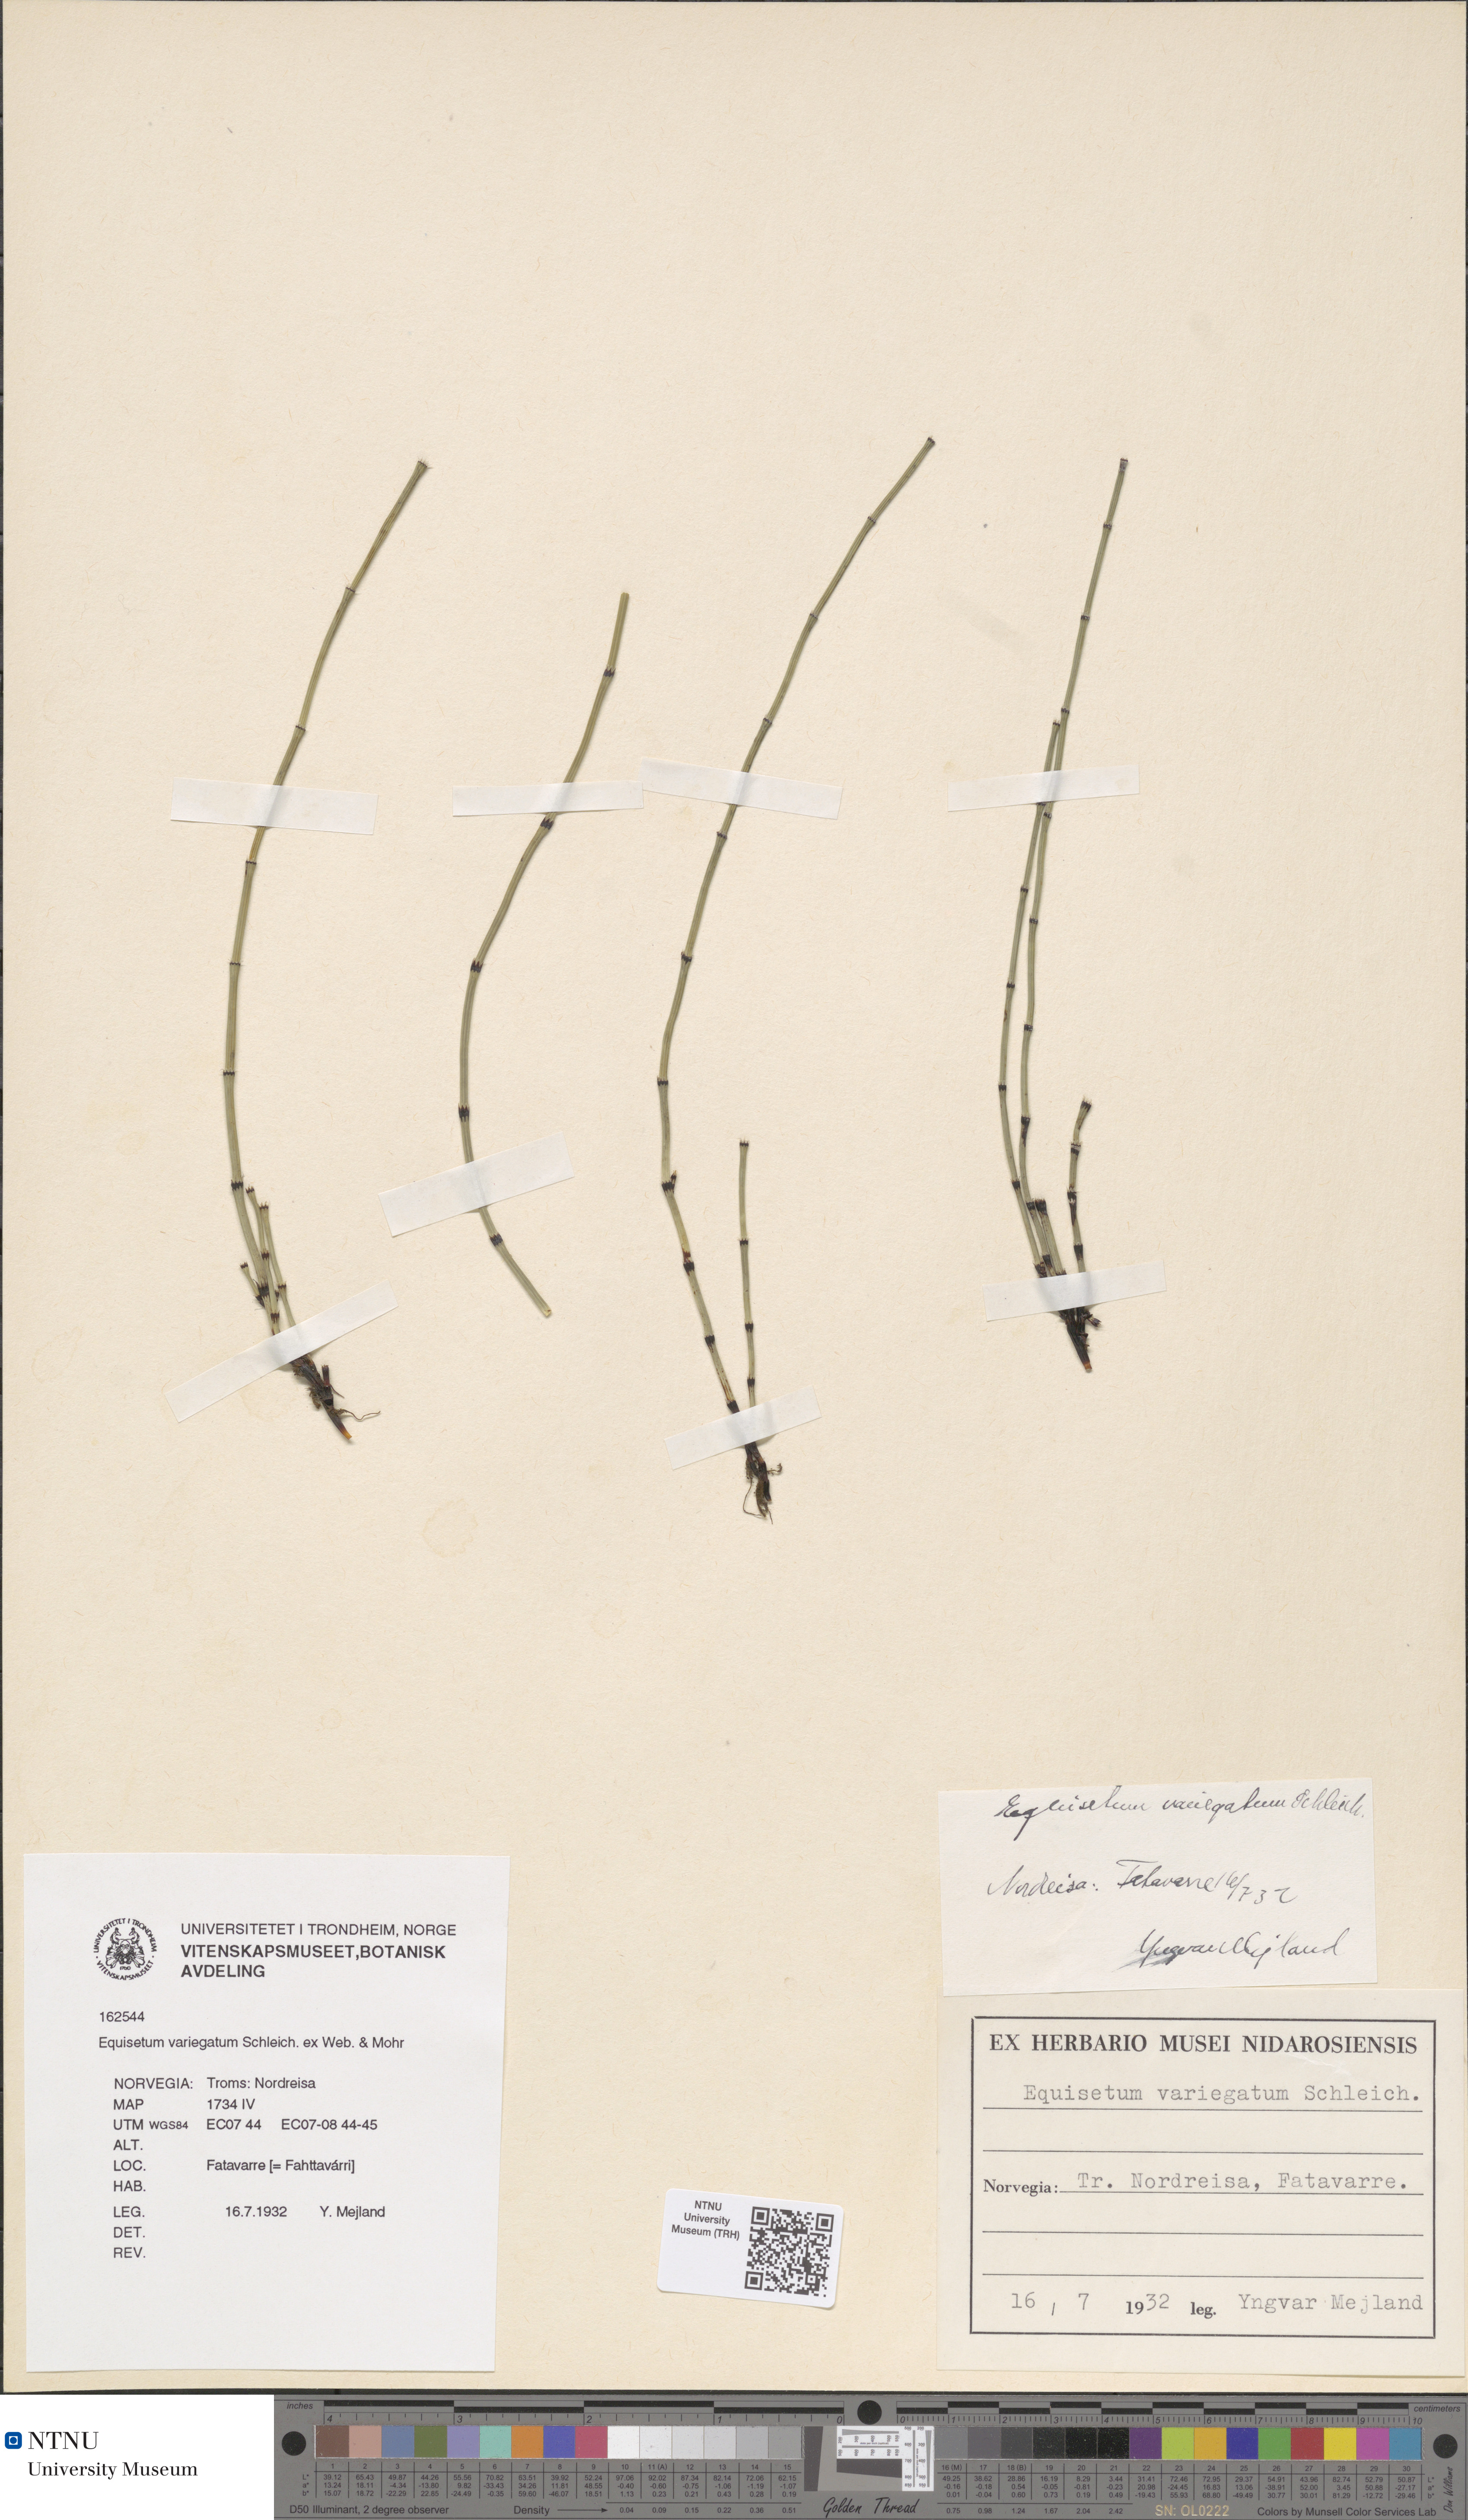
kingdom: Plantae
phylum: Tracheophyta
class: Polypodiopsida
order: Equisetales
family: Equisetaceae
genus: Equisetum
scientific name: Equisetum variegatum
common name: Variegated horsetail
